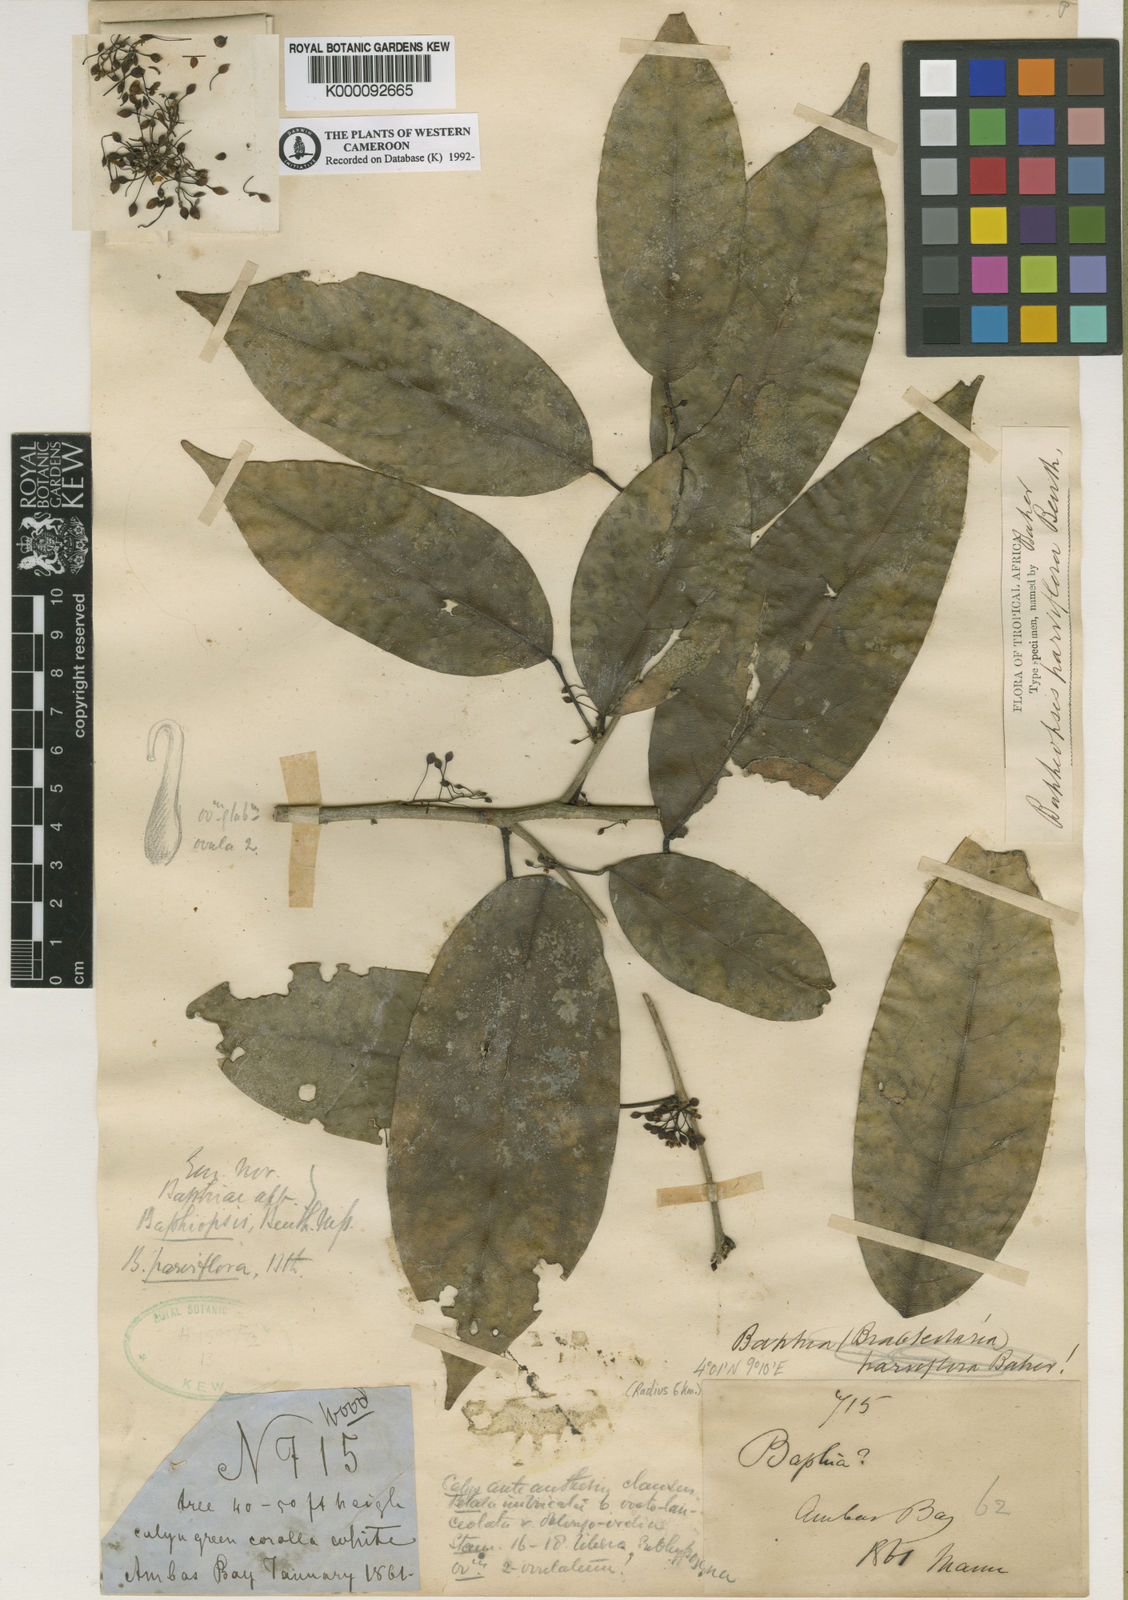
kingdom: Plantae
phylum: Tracheophyta
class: Magnoliopsida
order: Fabales
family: Fabaceae
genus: Baphiopsis
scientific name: Baphiopsis parviflora
